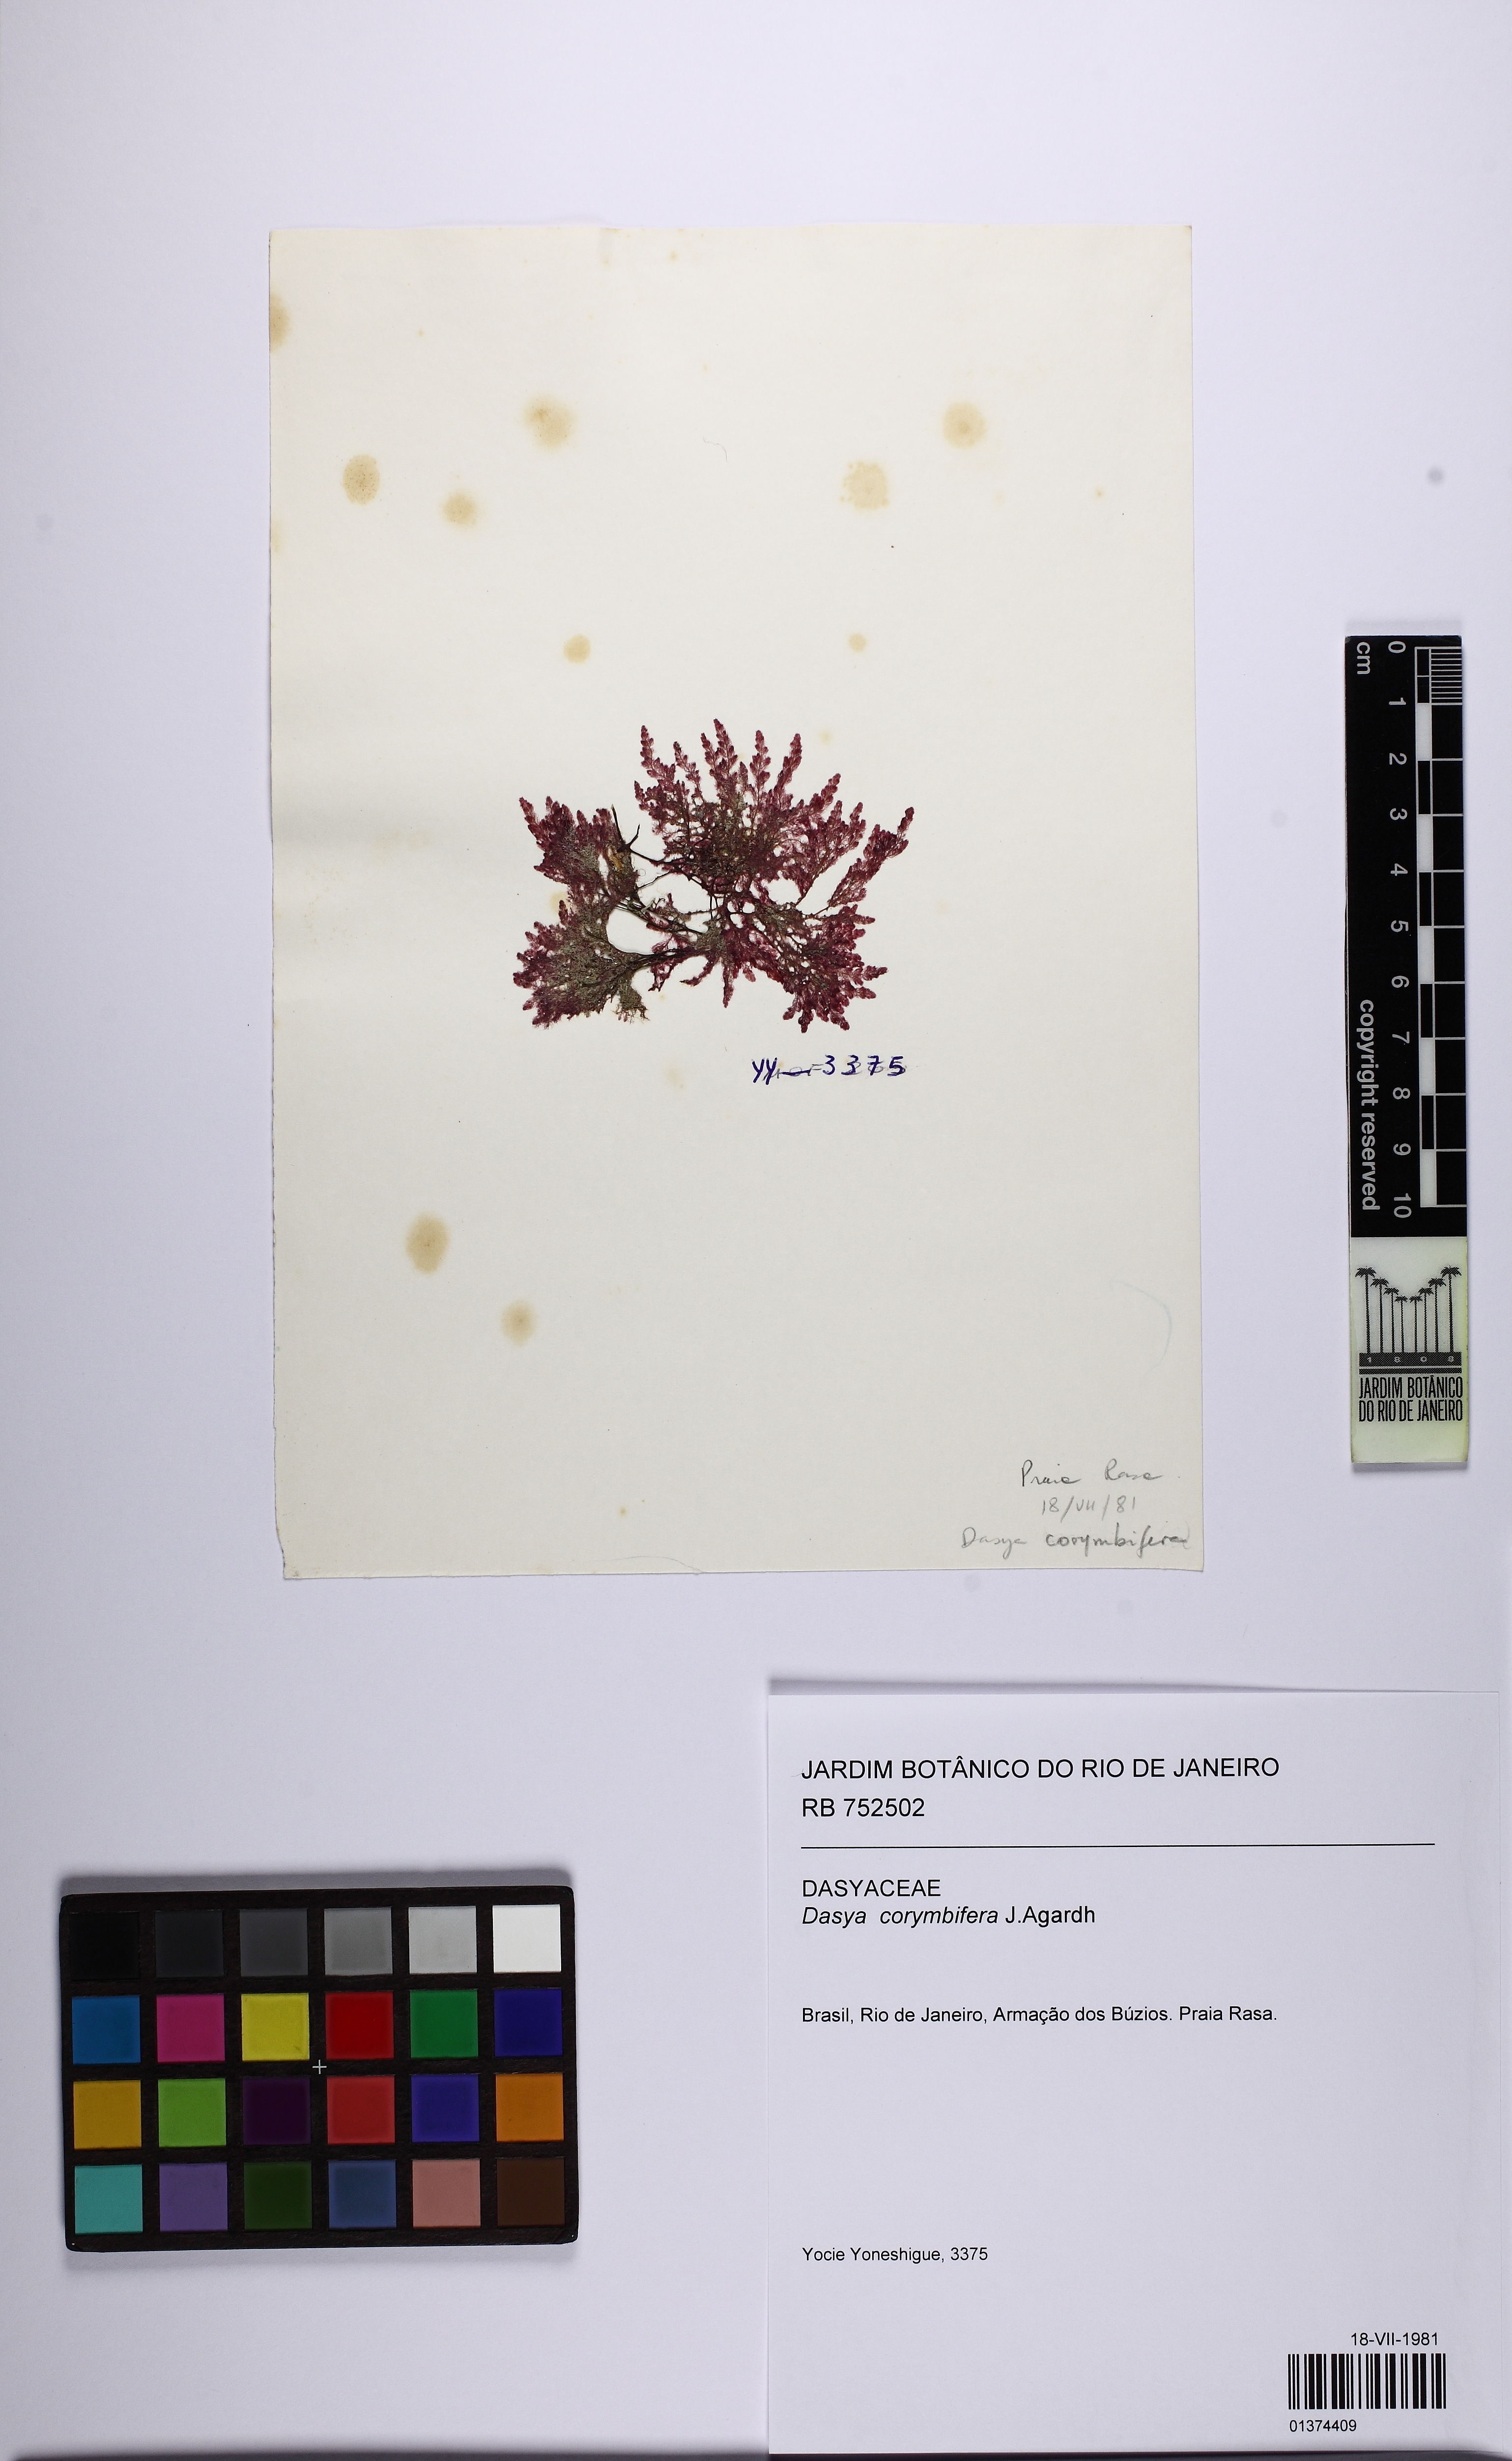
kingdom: Plantae
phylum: Rhodophyta
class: Florideophyceae
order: Ceramiales
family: Dasyaceae
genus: Dasya
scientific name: Dasya corymbifera
